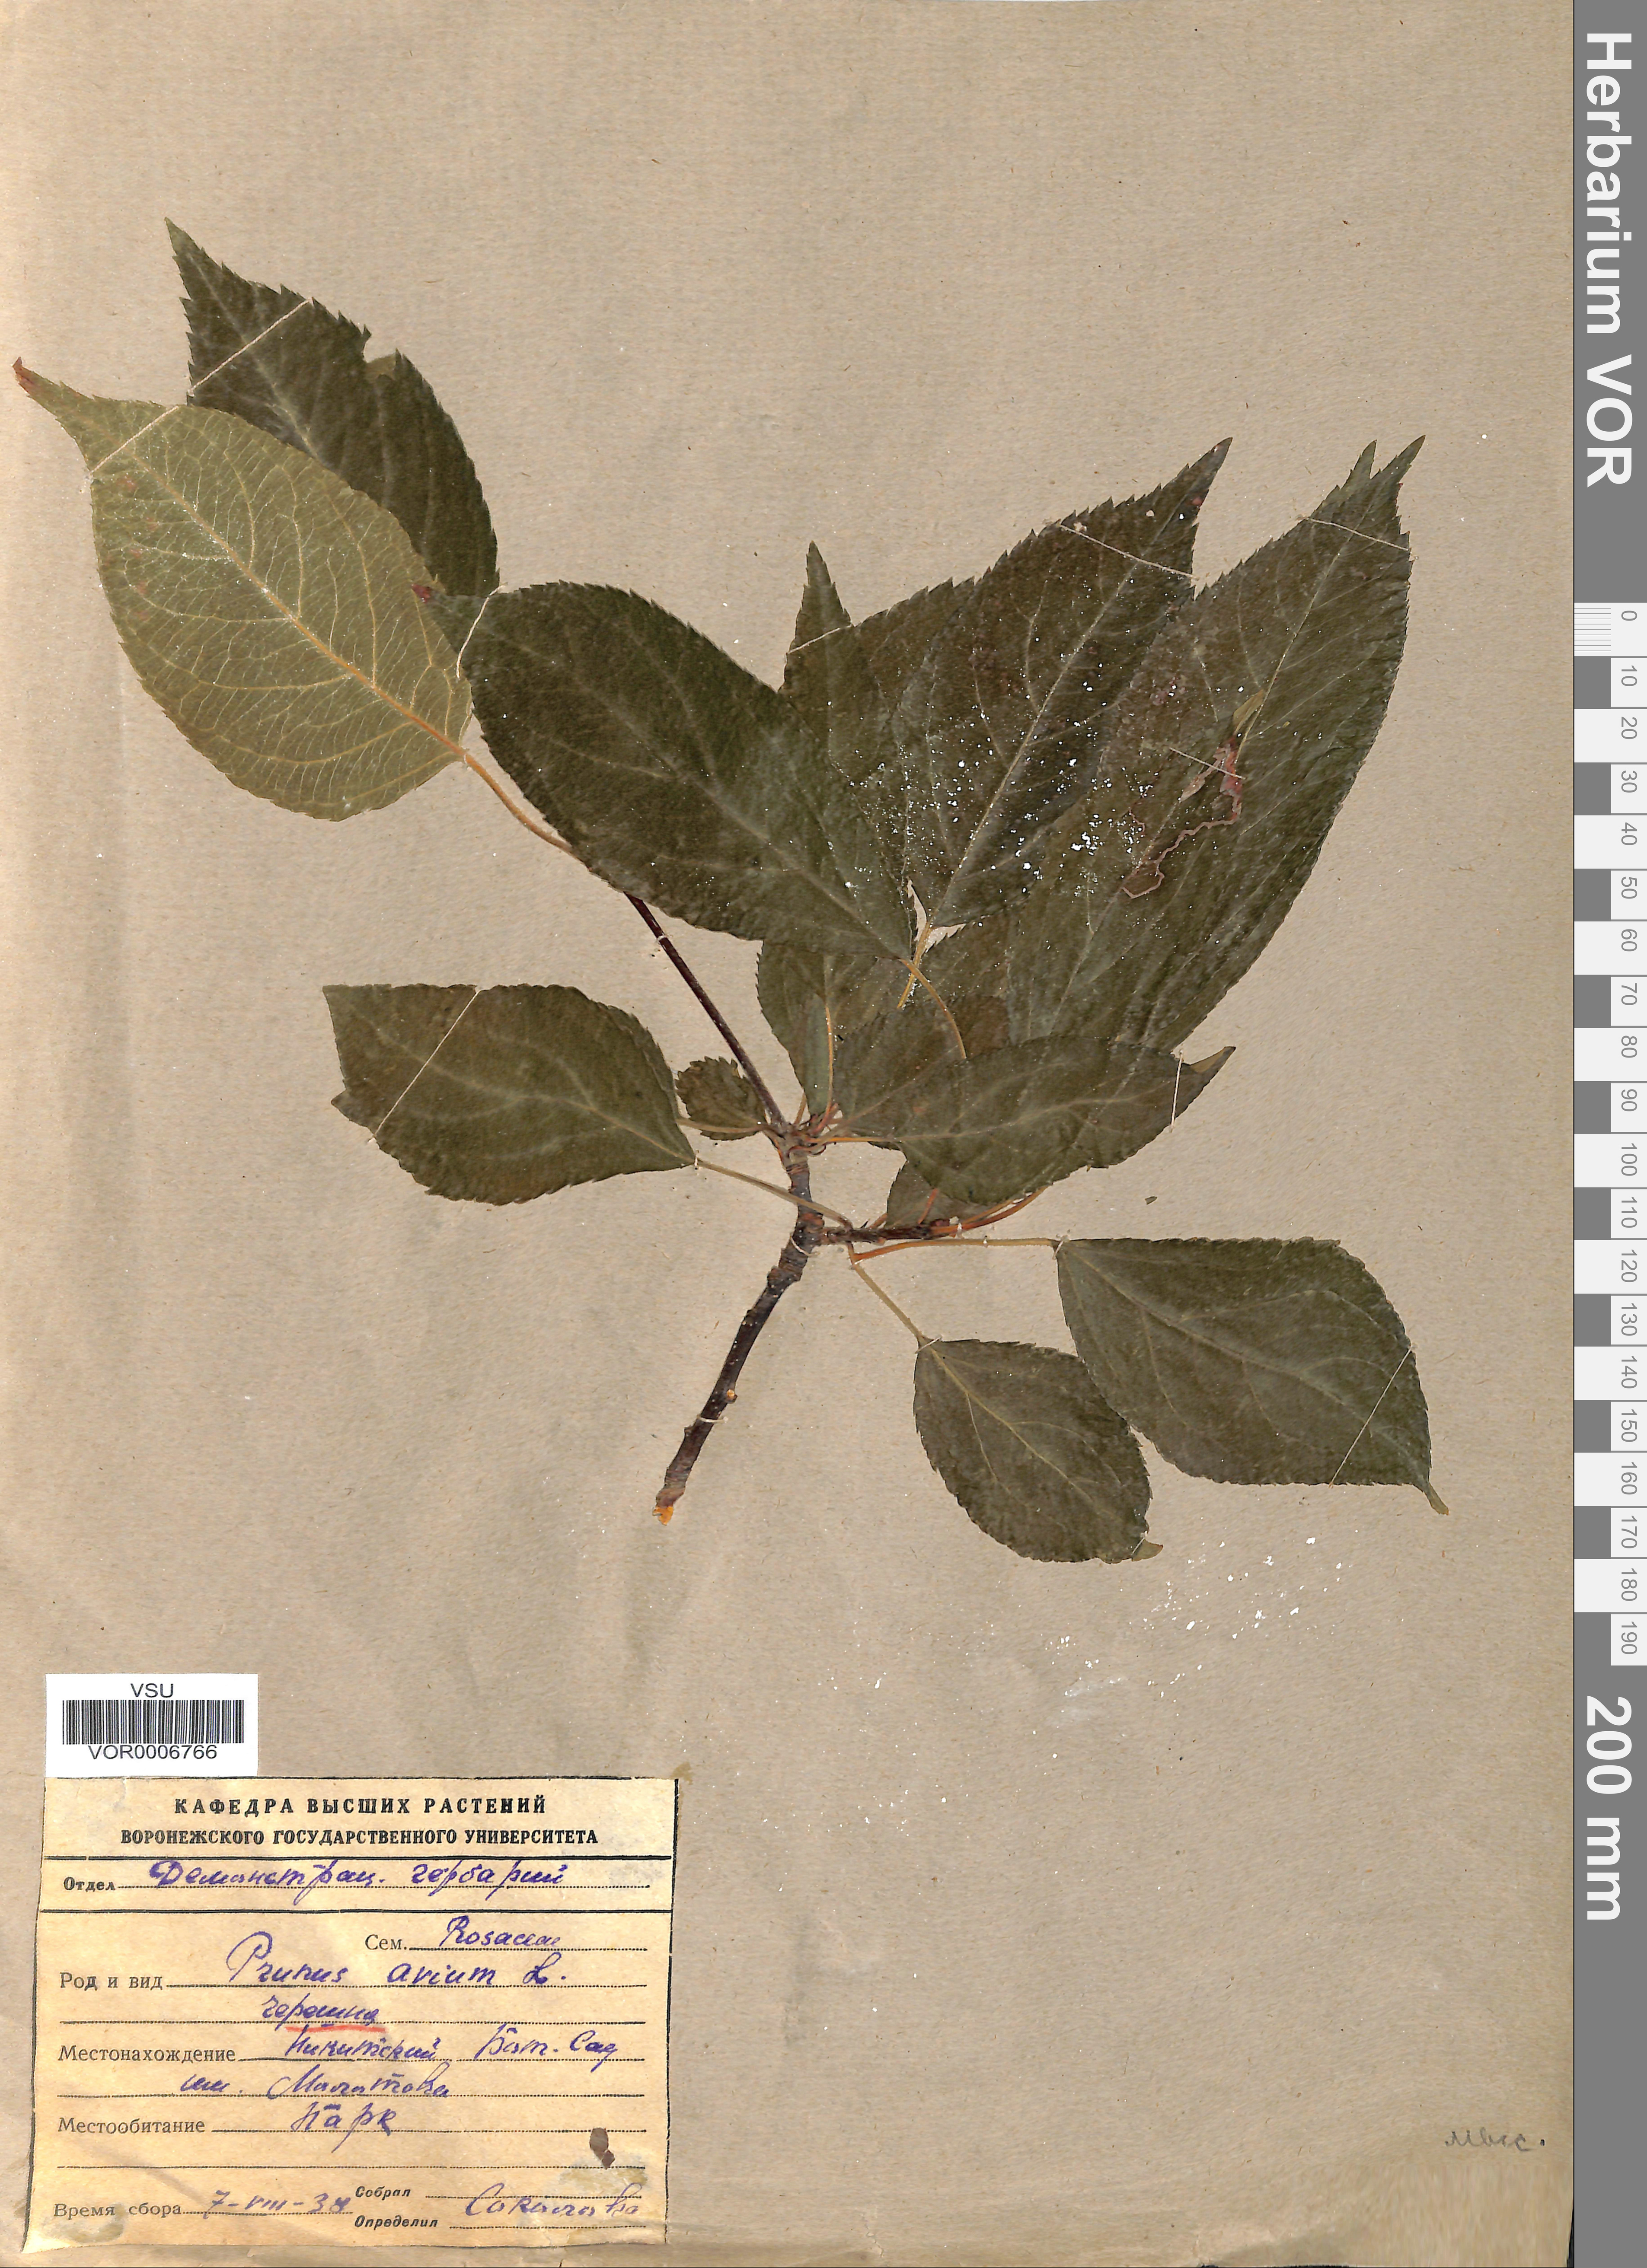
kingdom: Plantae
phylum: Tracheophyta
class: Magnoliopsida
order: Rosales
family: Rosaceae
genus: Prunus
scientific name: Prunus avium
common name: Sweet cherry
